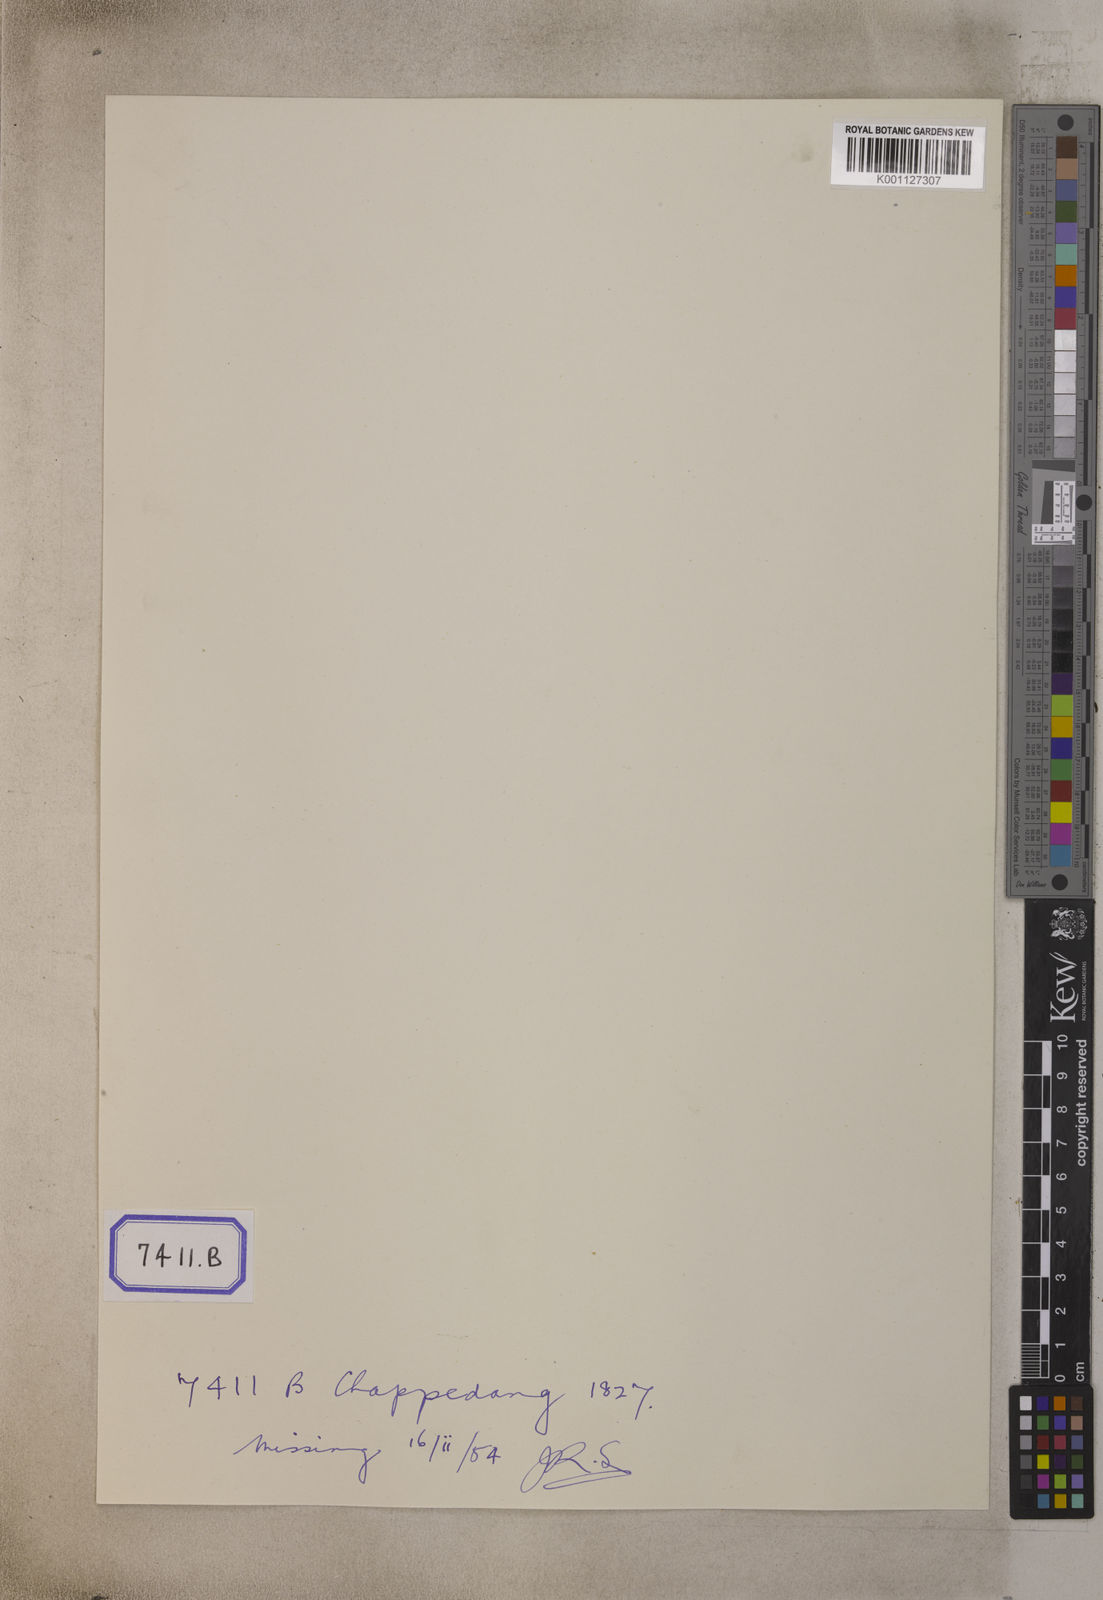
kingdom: Plantae
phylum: Tracheophyta
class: Liliopsida
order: Asparagales
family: Orchidaceae
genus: Dendrobium
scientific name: Dendrobium lindleyi
